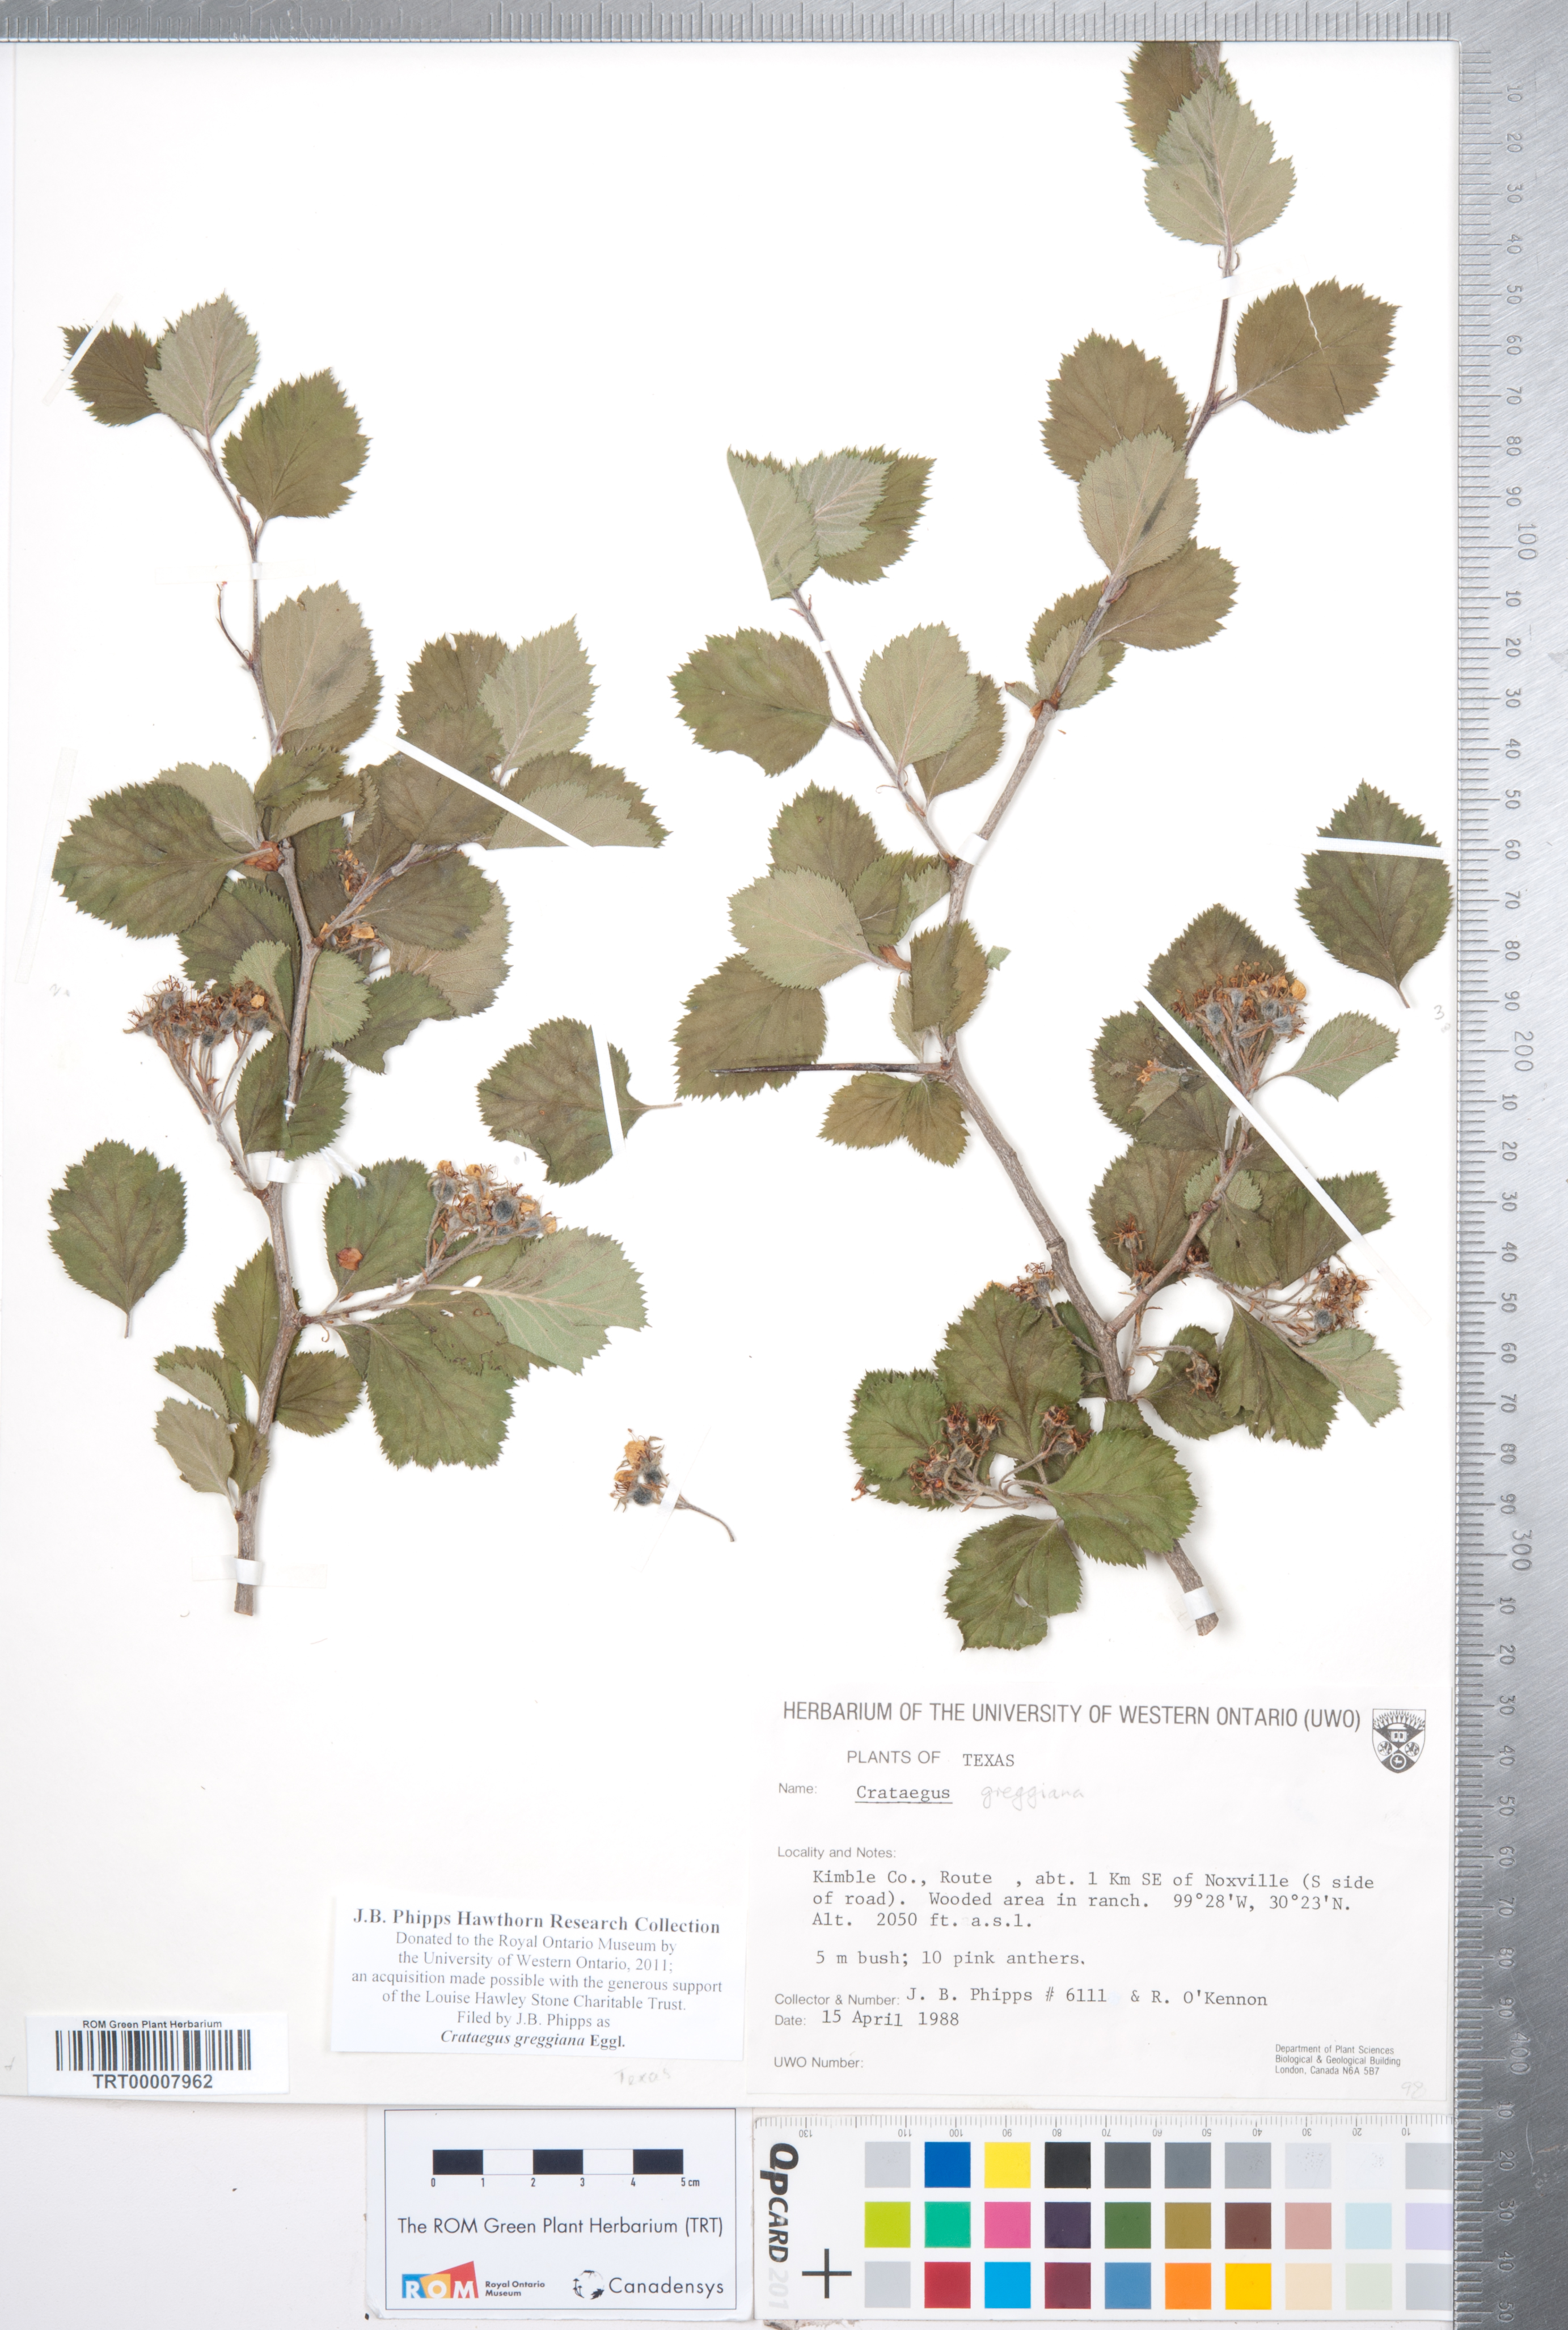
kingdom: Plantae
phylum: Tracheophyta
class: Magnoliopsida
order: Rosales
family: Rosaceae
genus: Crataegus
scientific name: Crataegus greggiana
